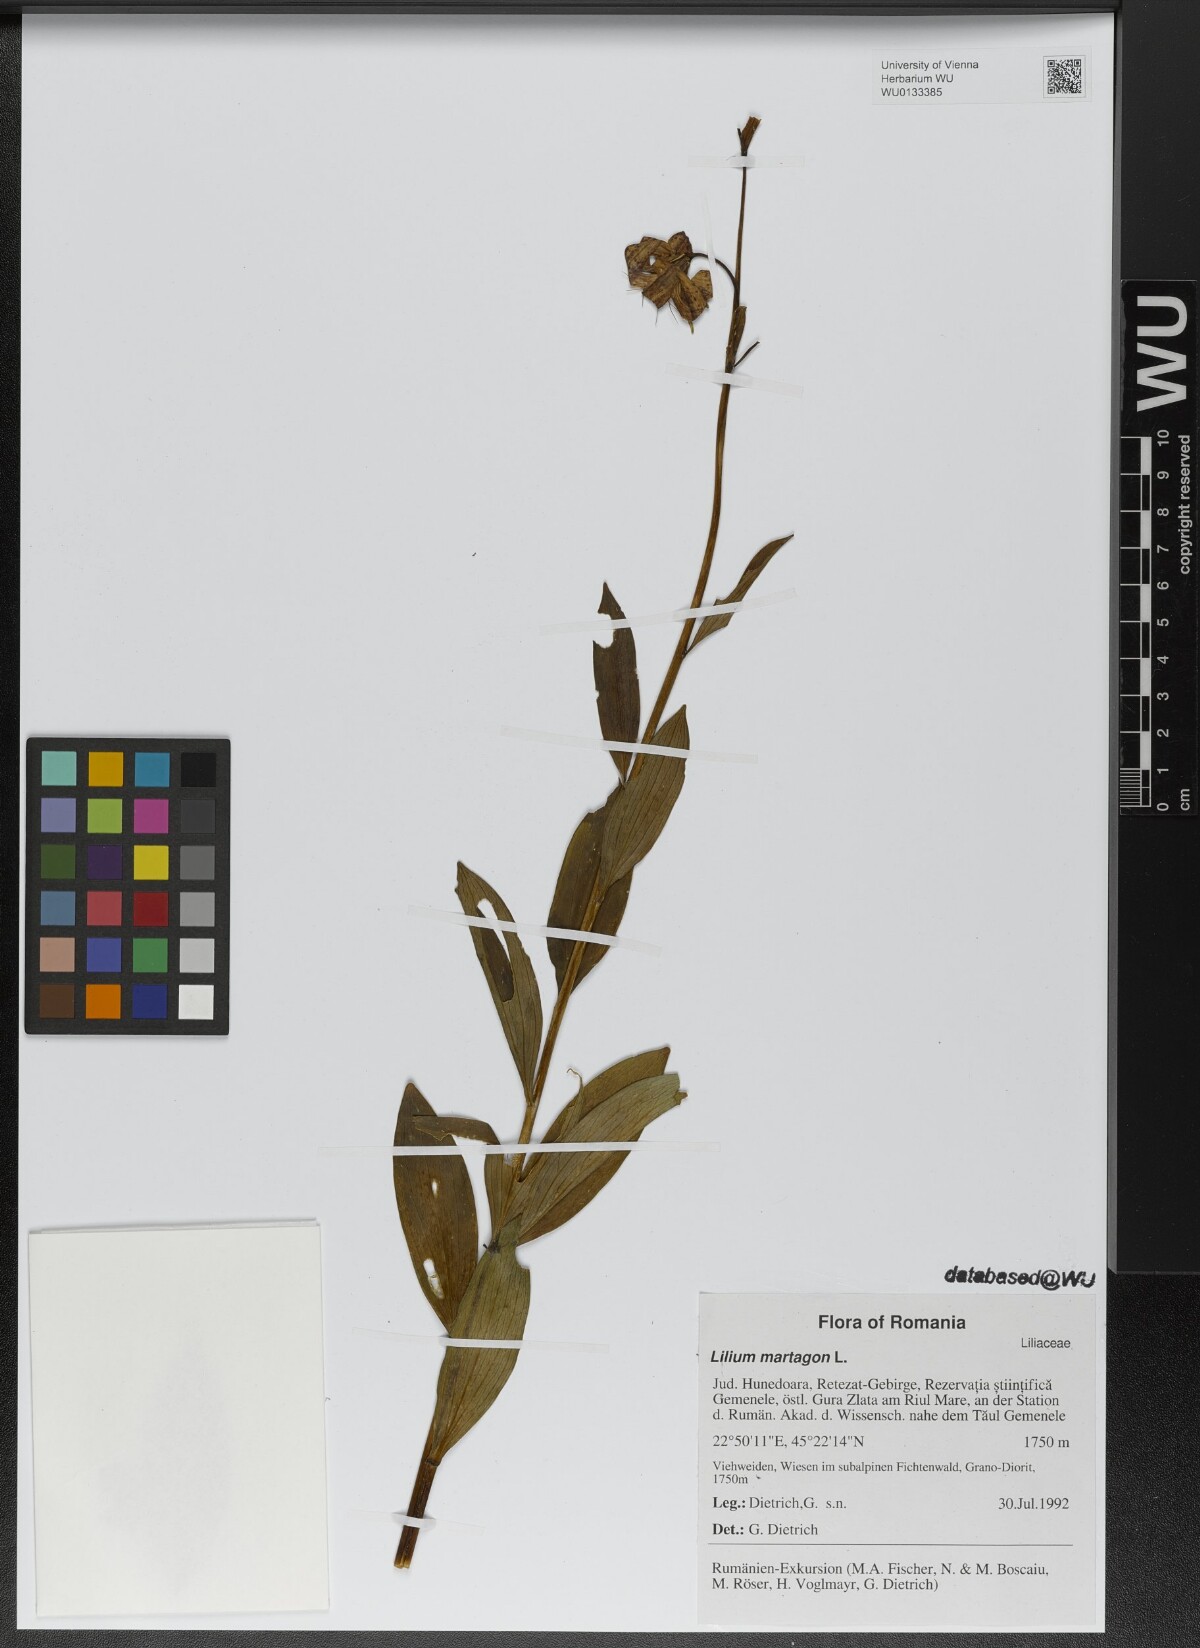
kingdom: Plantae
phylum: Tracheophyta
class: Liliopsida
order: Liliales
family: Liliaceae
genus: Lilium
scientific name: Lilium martagon
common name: Martagon lily
